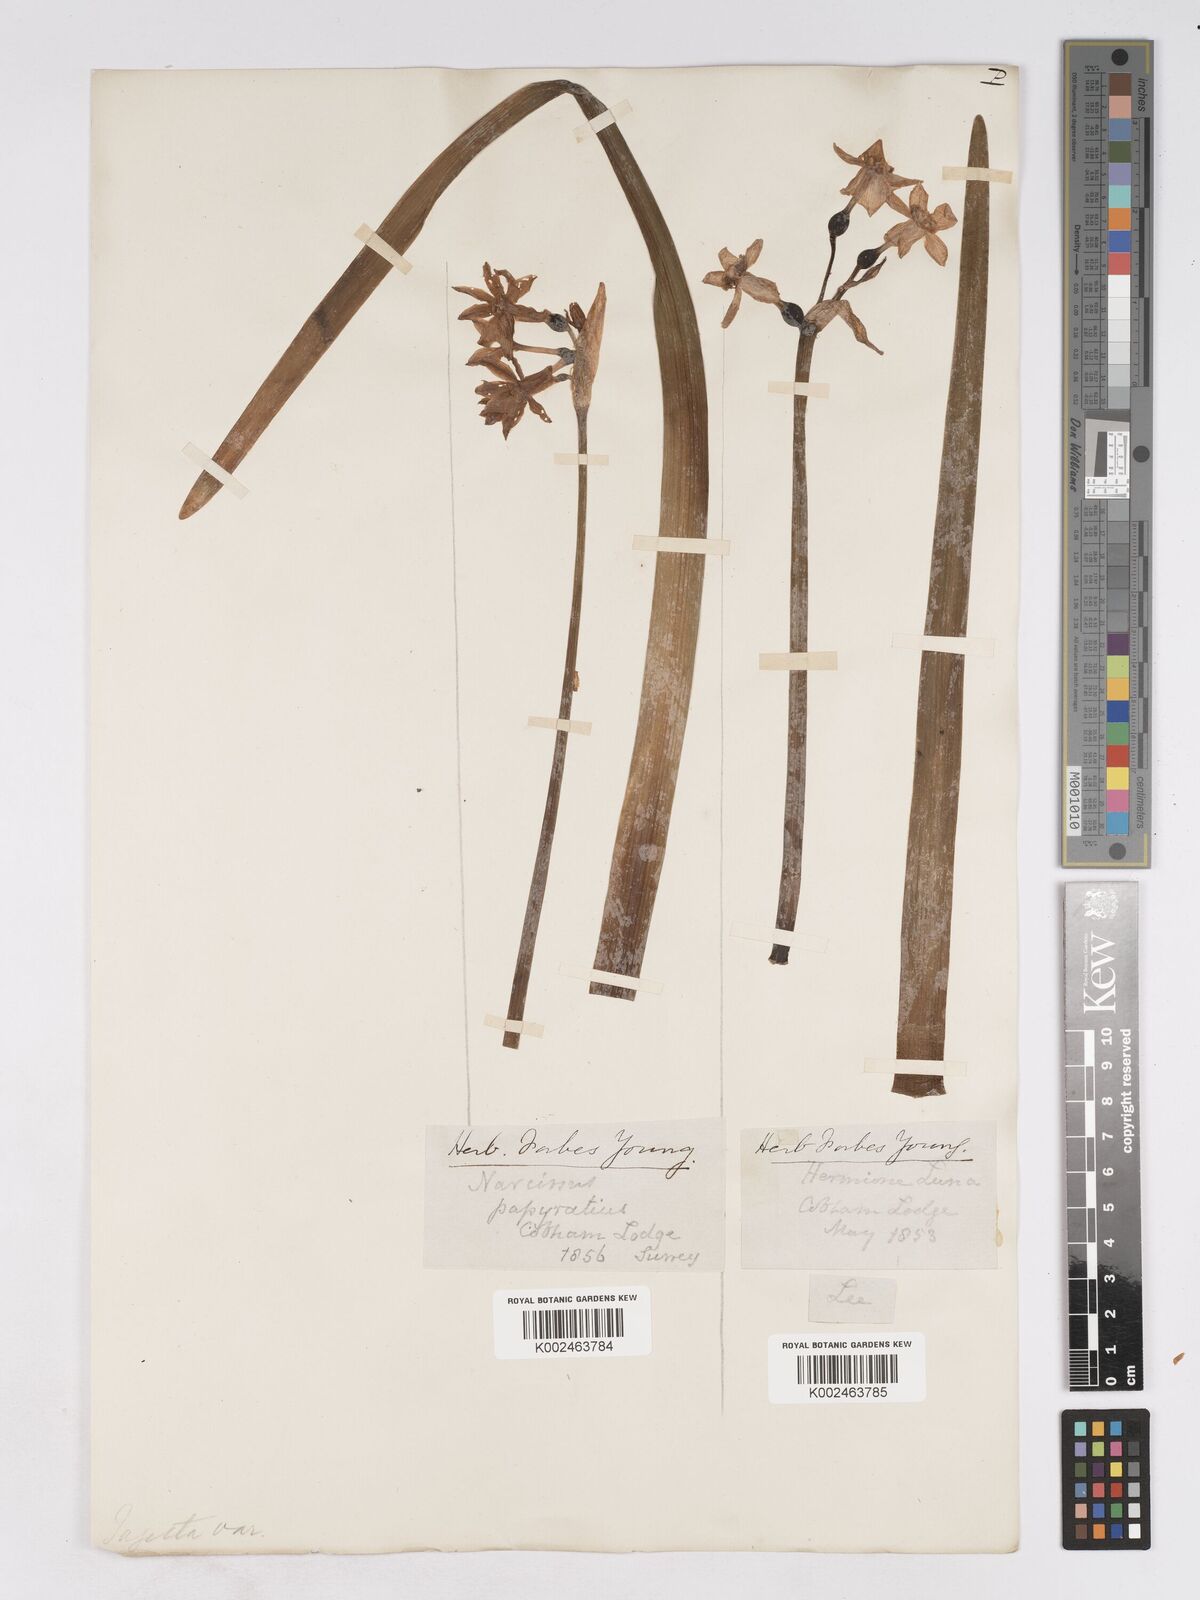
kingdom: Plantae
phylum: Tracheophyta
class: Liliopsida
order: Asparagales
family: Amaryllidaceae
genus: Narcissus
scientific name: Narcissus
